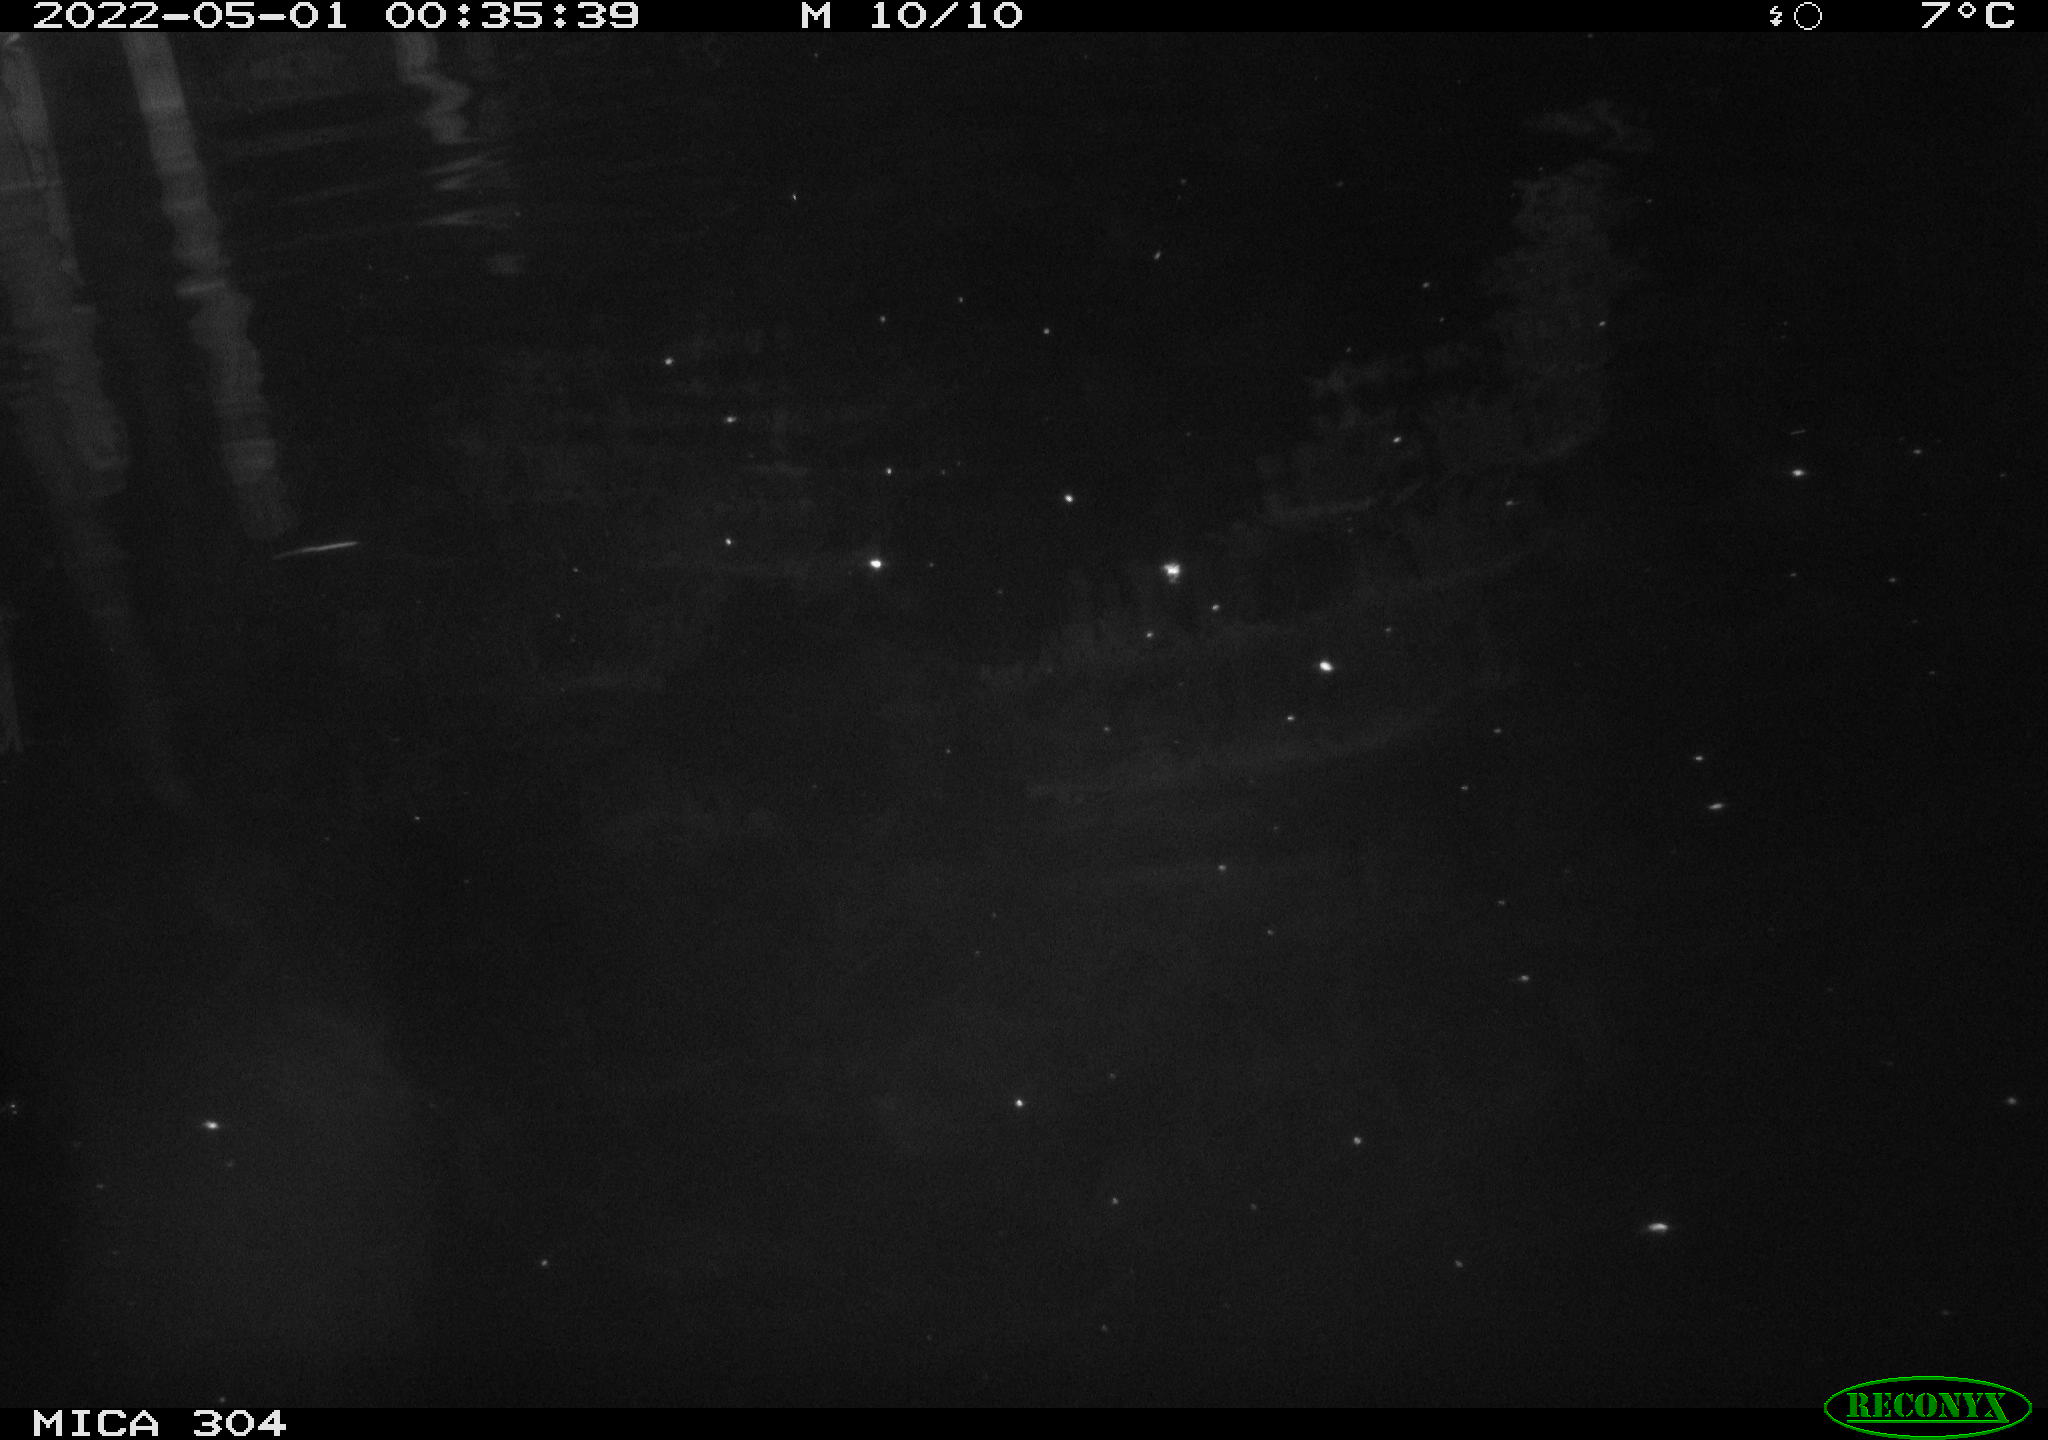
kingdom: Animalia
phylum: Chordata
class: Mammalia
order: Rodentia
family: Muridae
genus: Rattus
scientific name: Rattus norvegicus
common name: Brown rat
